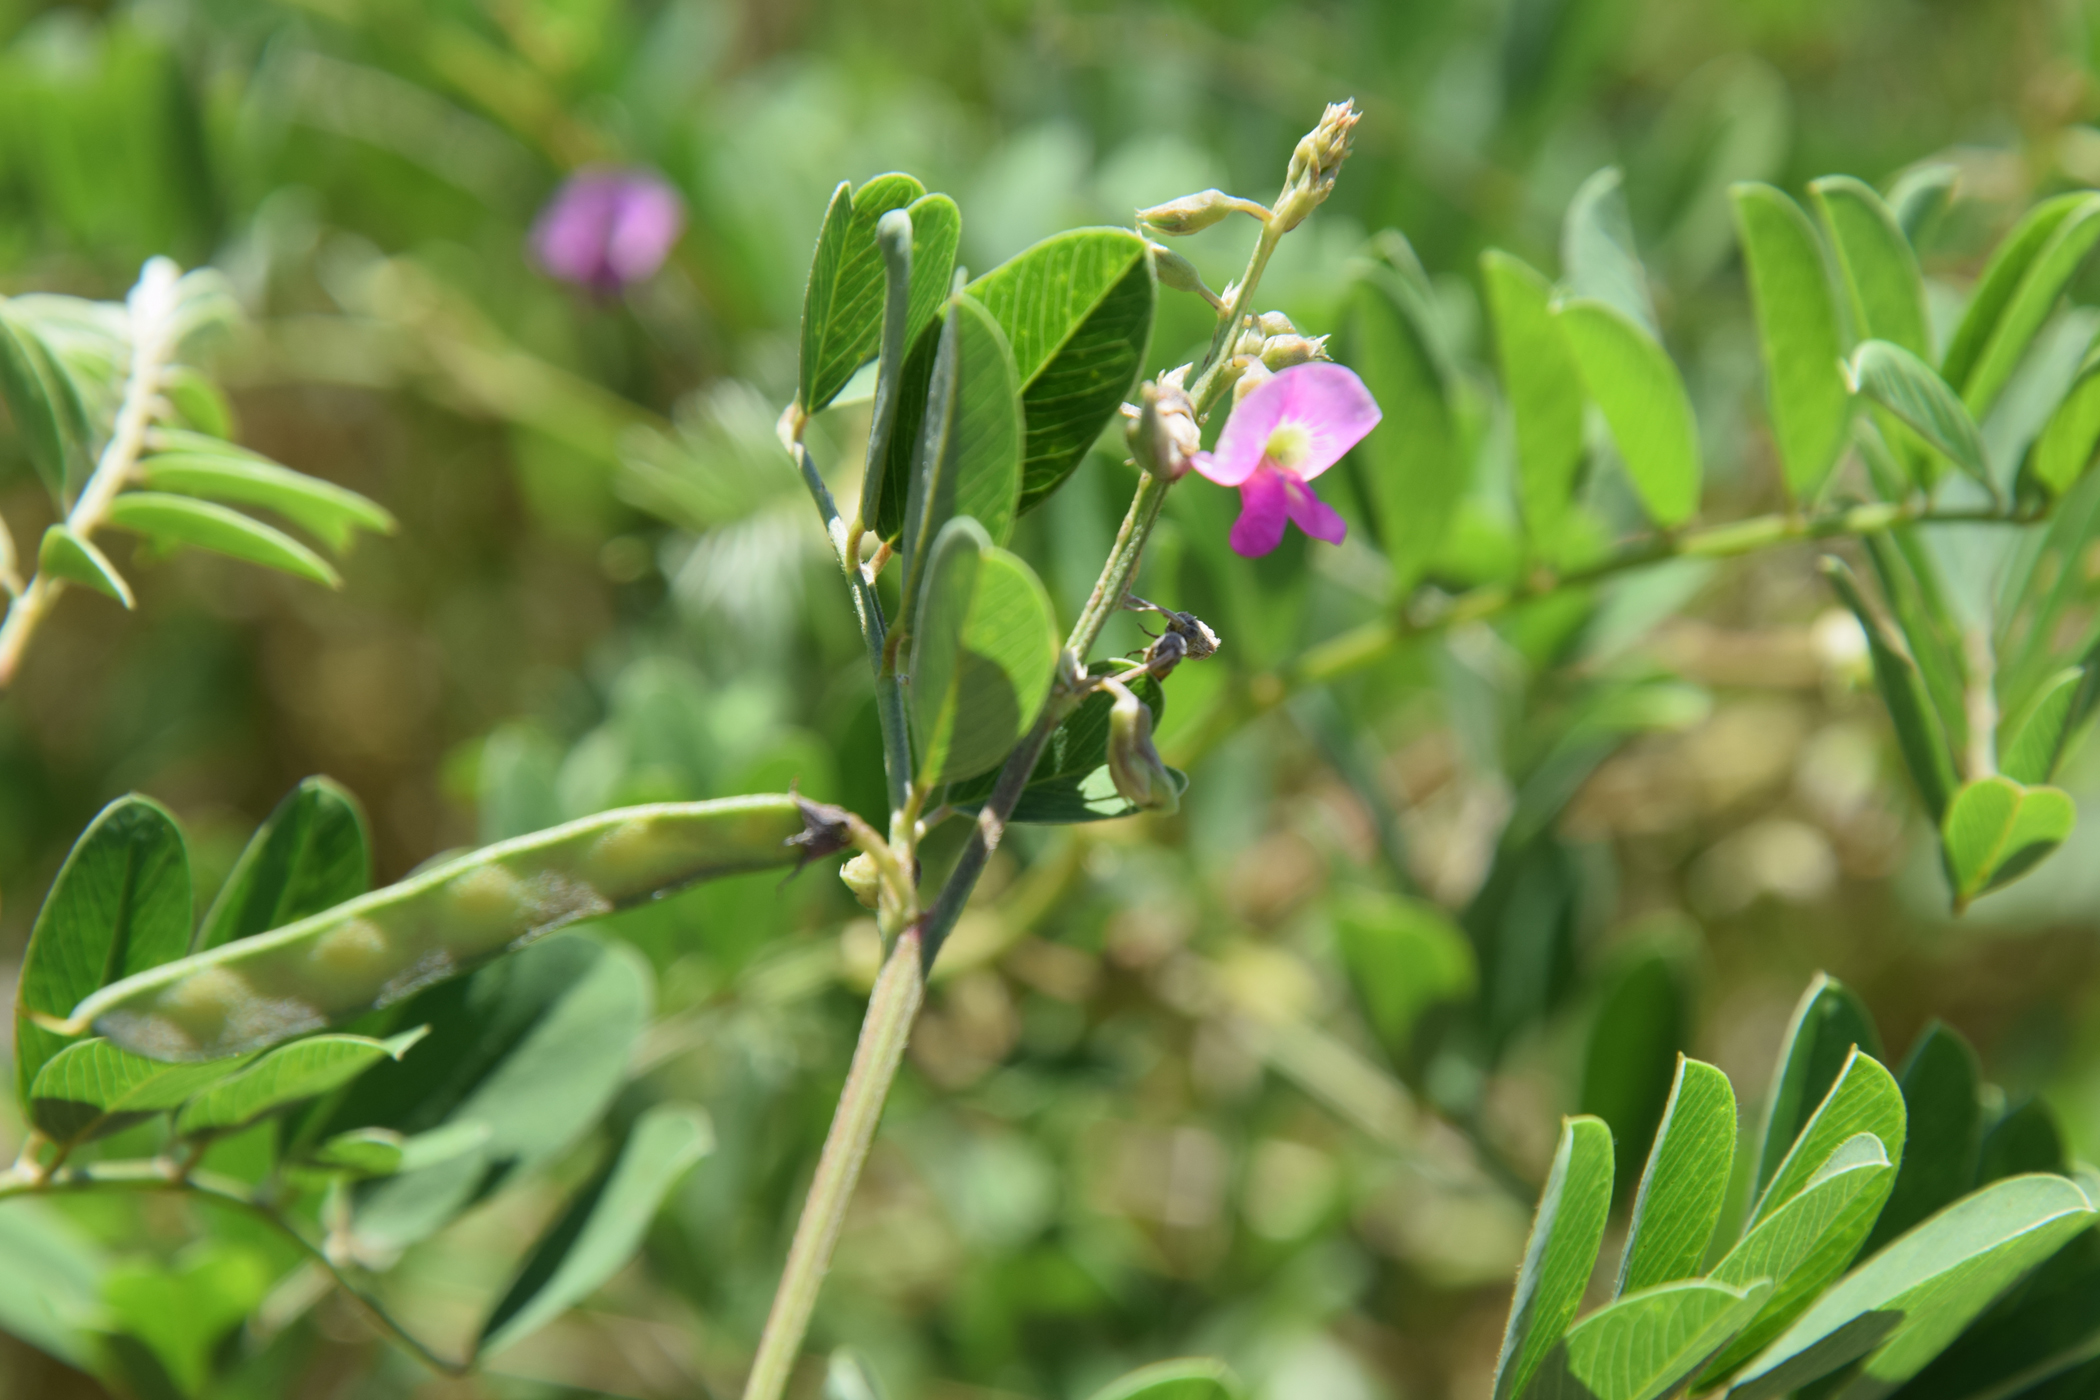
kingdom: Plantae
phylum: Tracheophyta
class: Magnoliopsida
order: Fabales
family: Fabaceae
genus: Tephrosia
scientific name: Tephrosia purpurea
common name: Fishpoison
